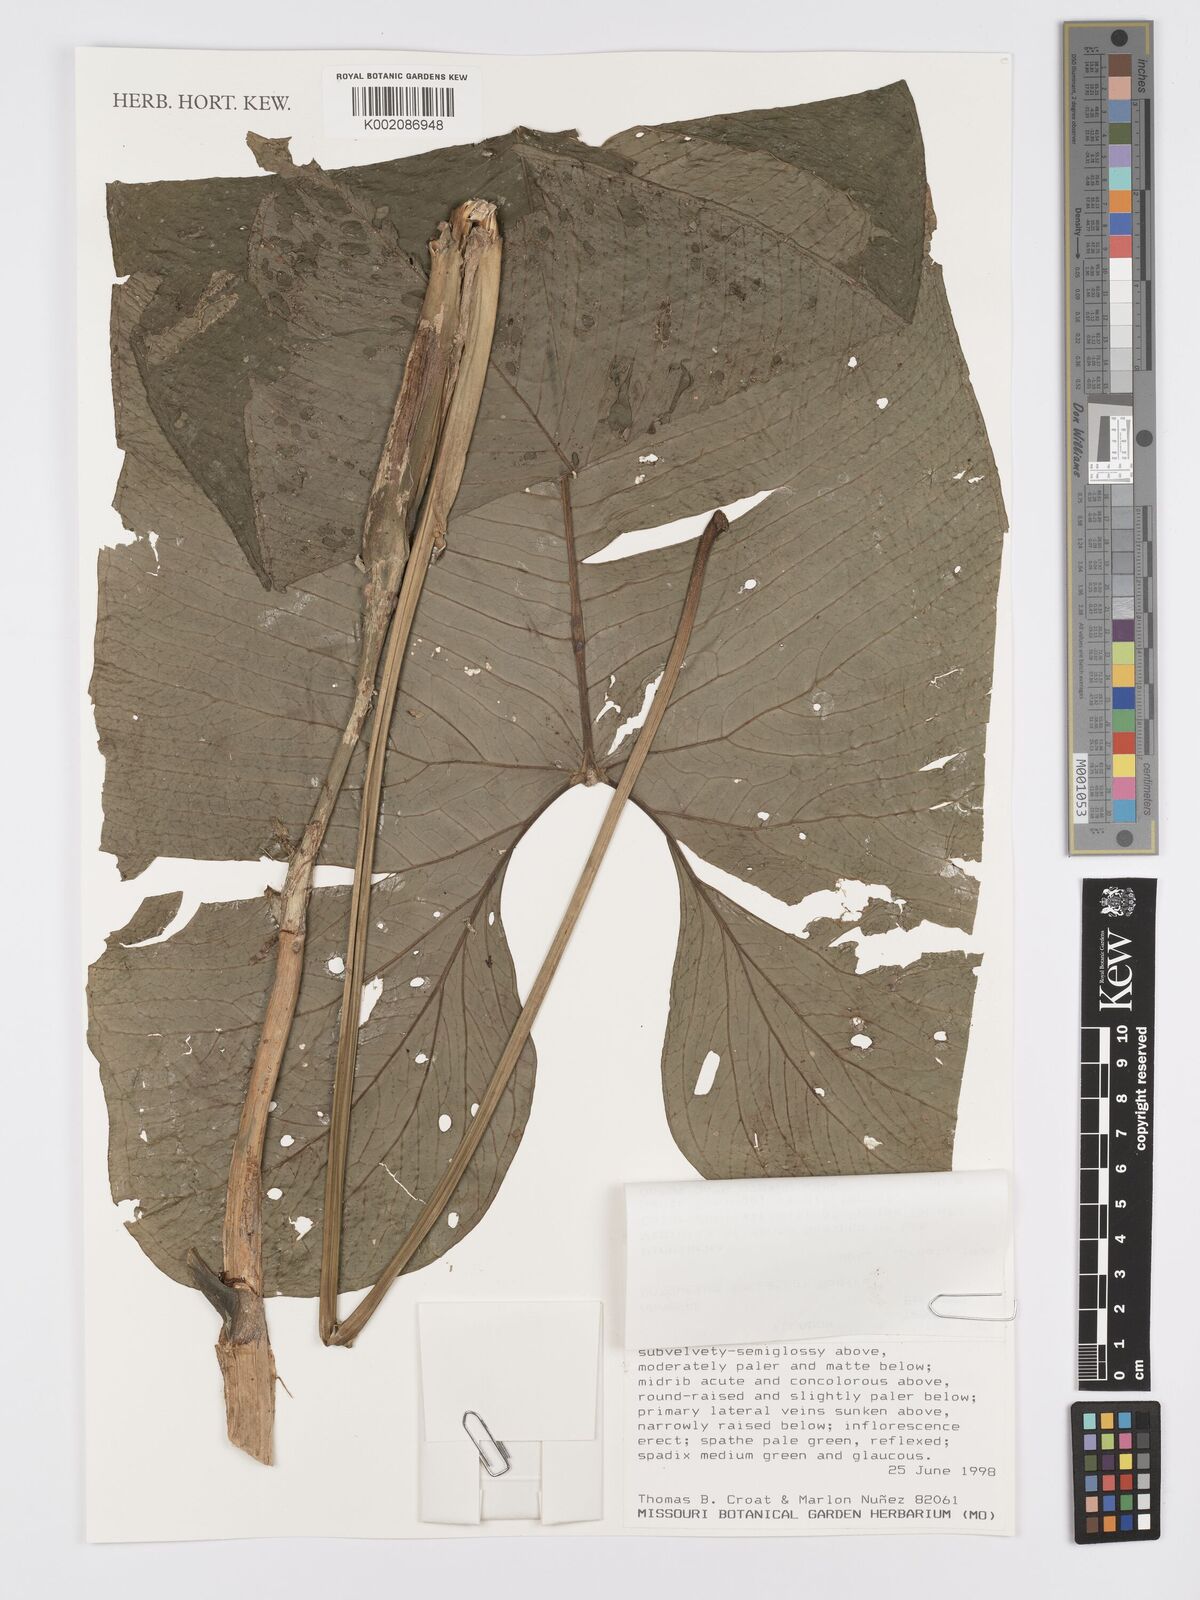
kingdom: Plantae
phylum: Tracheophyta
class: Liliopsida
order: Alismatales
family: Araceae
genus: Anthurium
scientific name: Anthurium saccardoi
